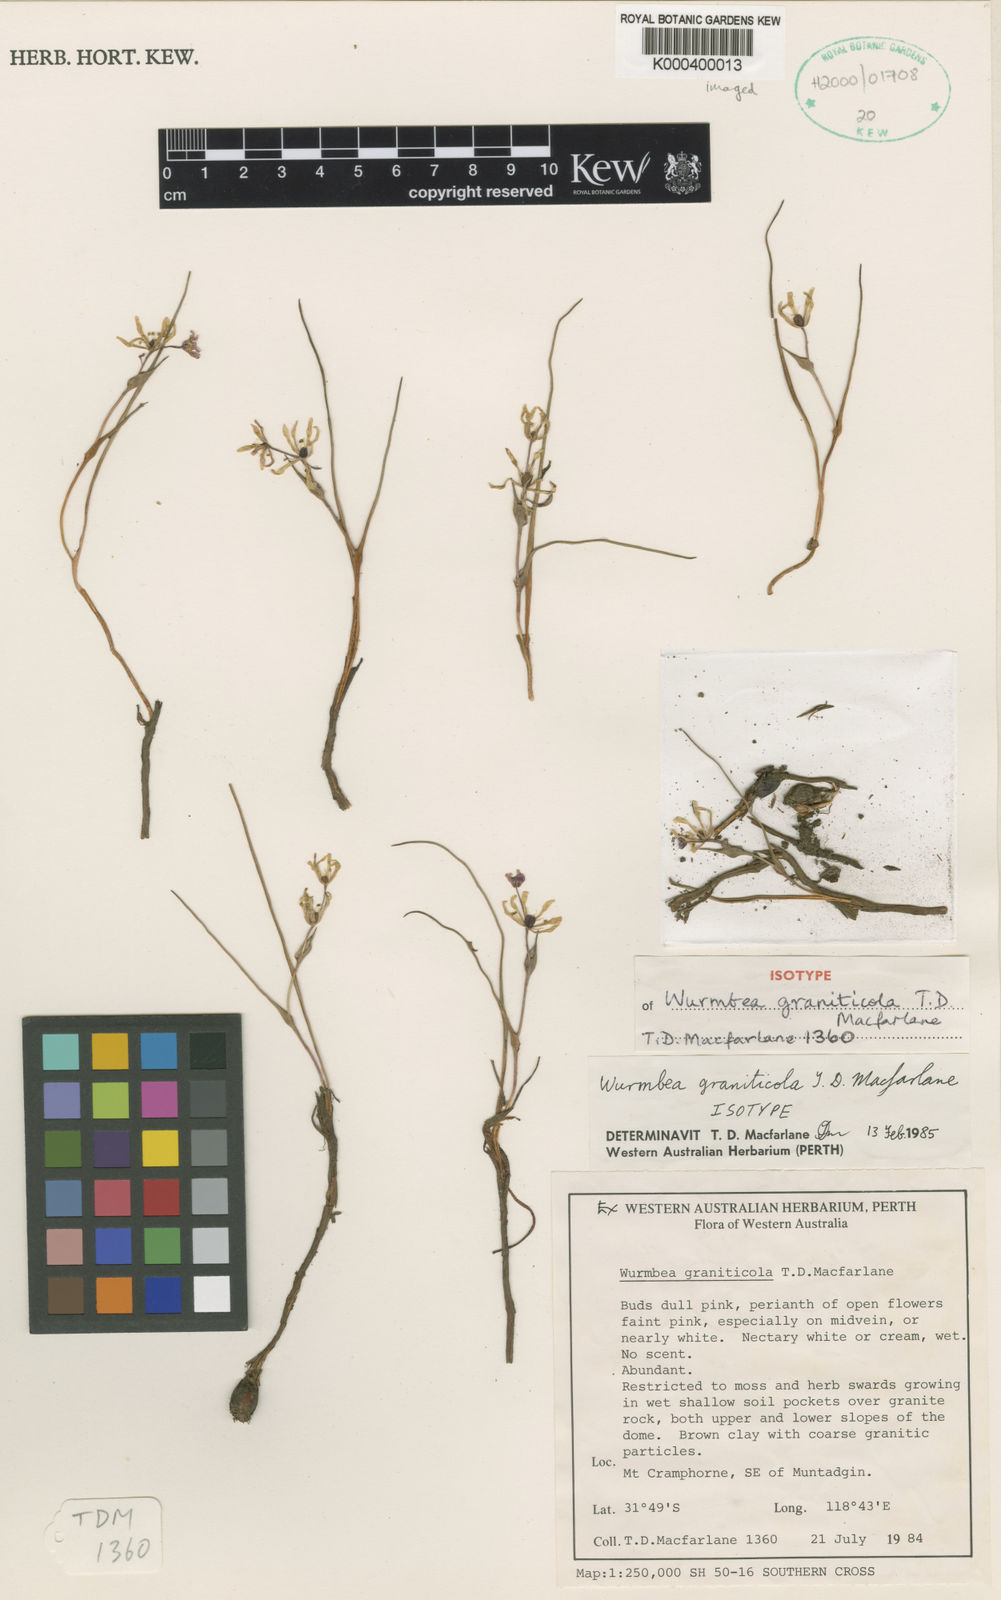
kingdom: Plantae
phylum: Tracheophyta
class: Liliopsida
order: Liliales
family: Colchicaceae
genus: Wurmbea
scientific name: Wurmbea graniticola
